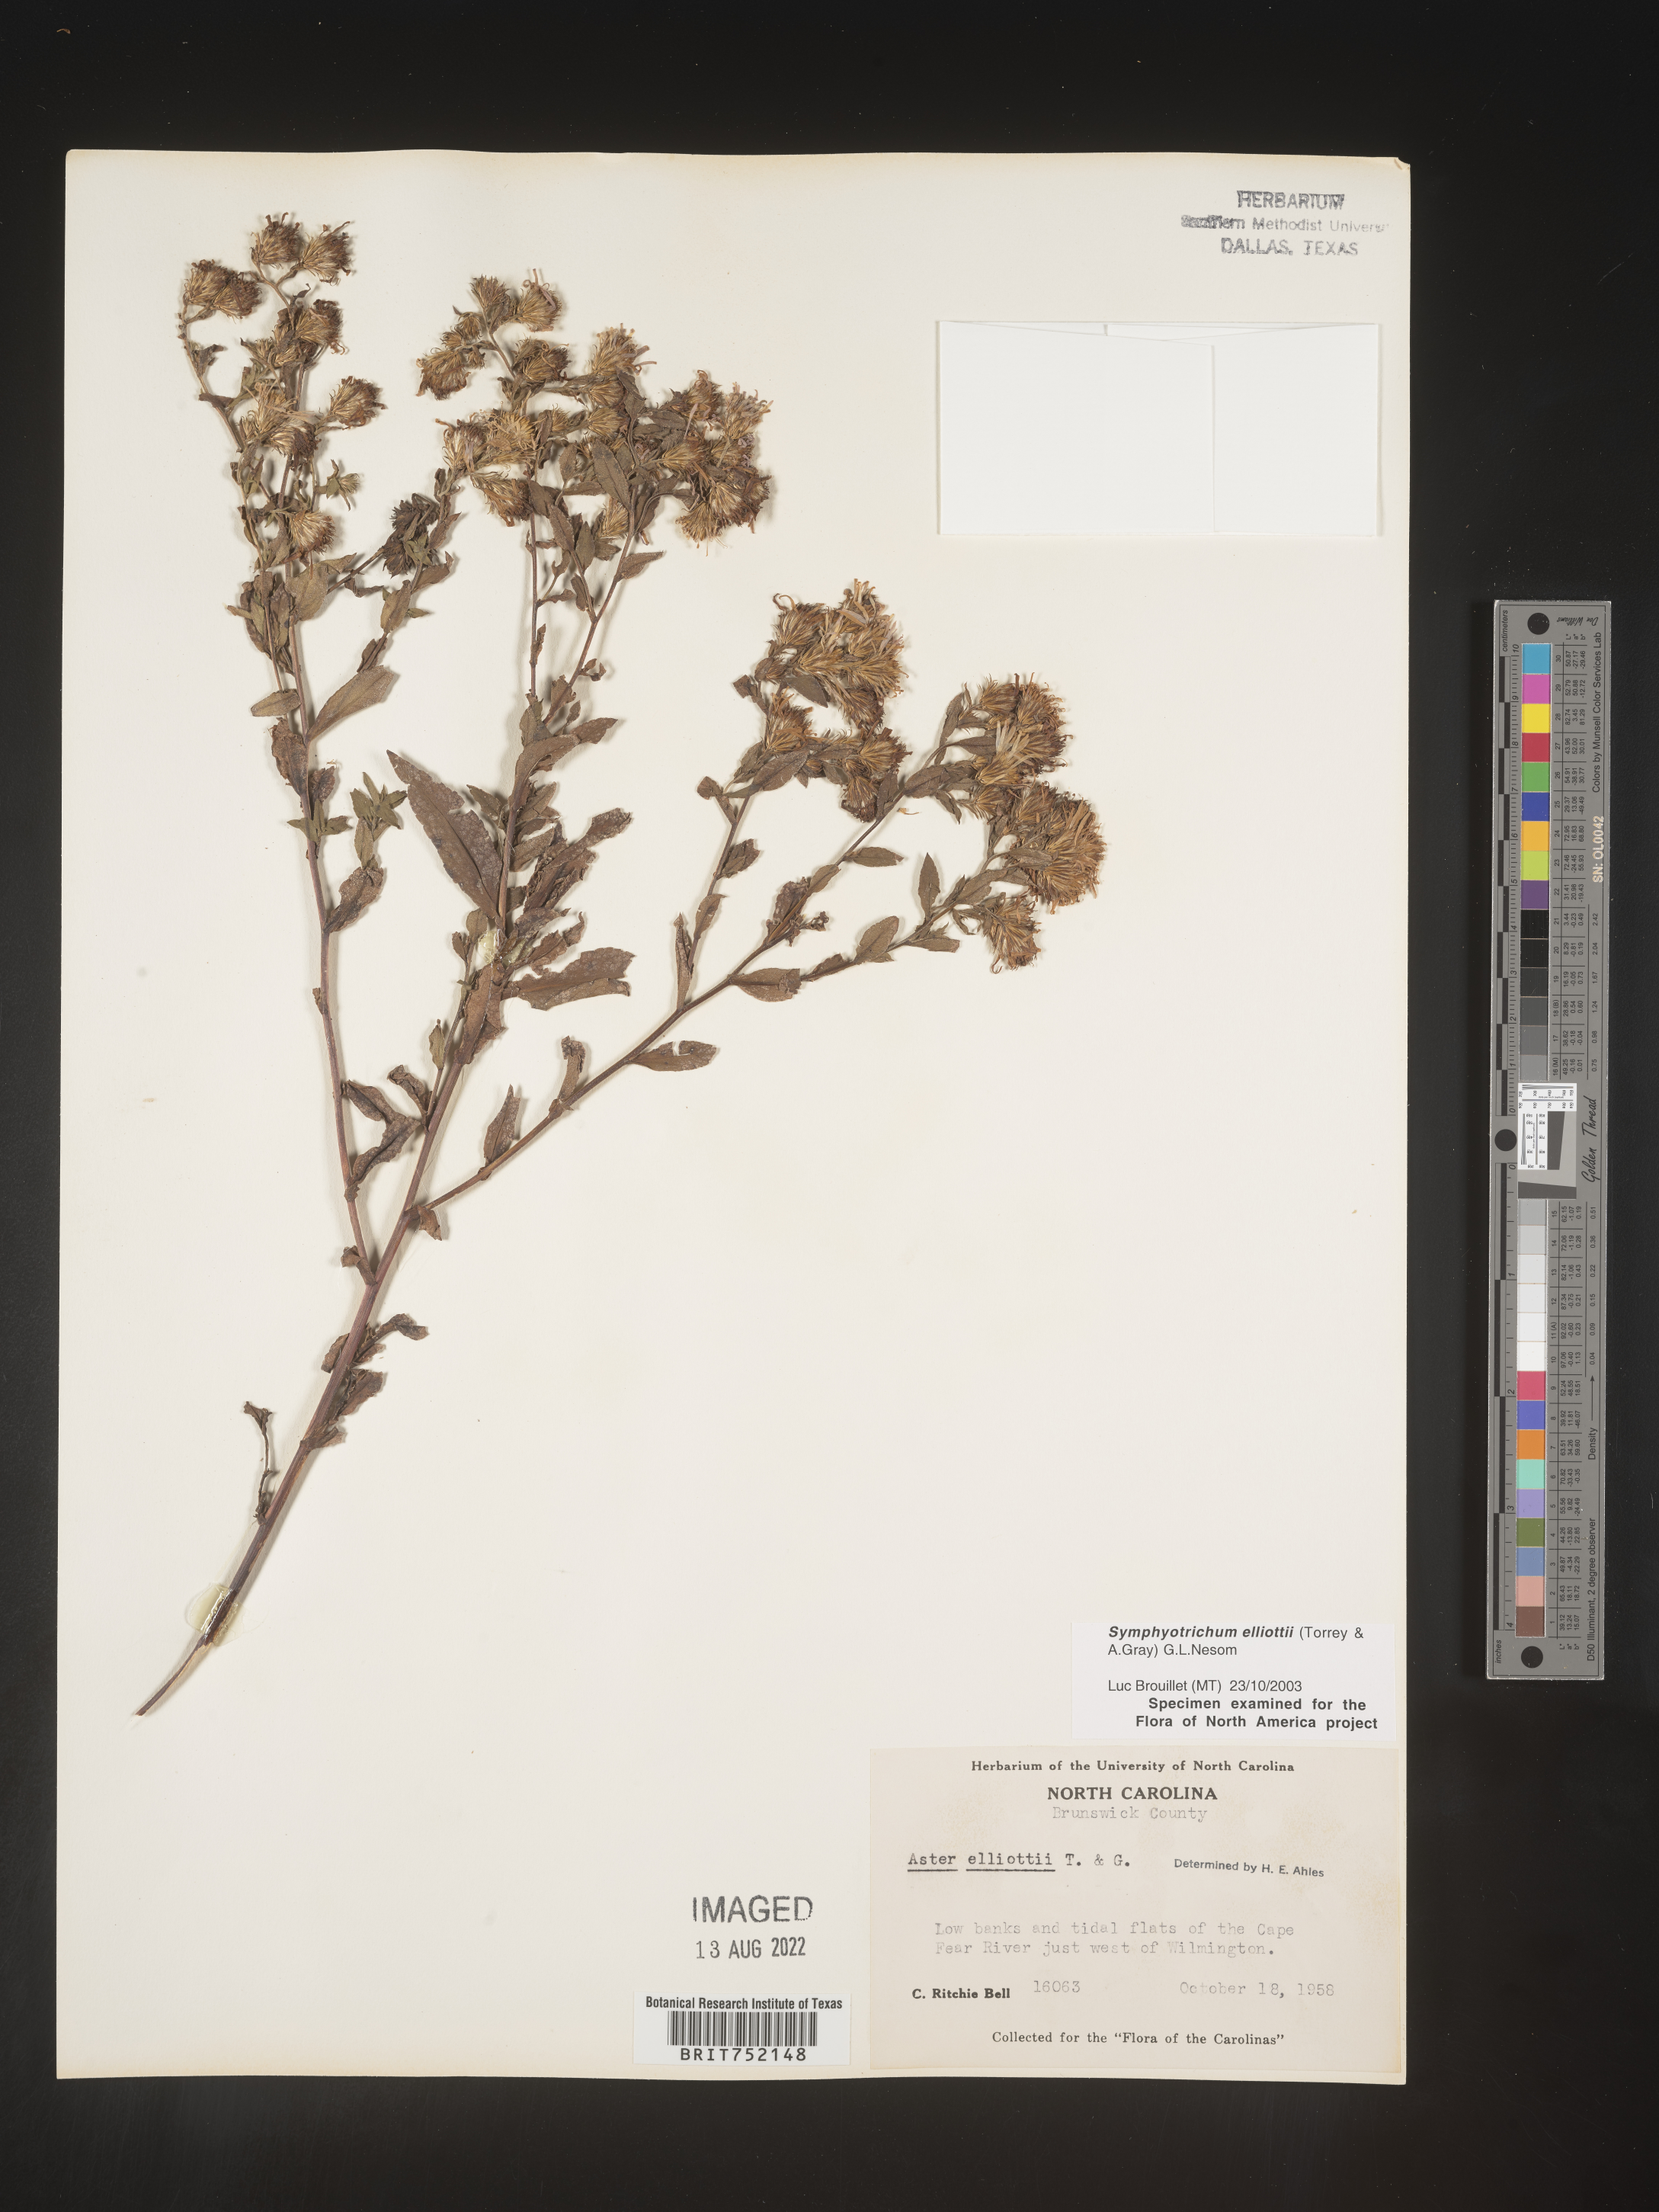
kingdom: Plantae
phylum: Tracheophyta
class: Magnoliopsida
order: Asterales
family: Asteraceae
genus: Symphyotrichum
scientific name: Symphyotrichum elliottii
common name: Southern swamp aster
